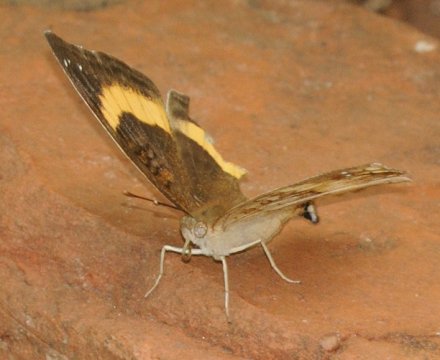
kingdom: Animalia
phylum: Arthropoda
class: Insecta
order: Lepidoptera
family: Nymphalidae
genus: Junonia
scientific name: Junonia terea
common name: Soldier Pansy
